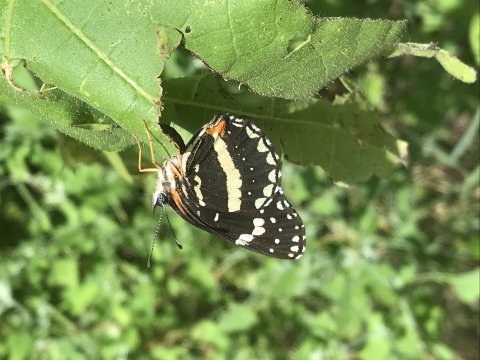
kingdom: Animalia
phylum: Arthropoda
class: Insecta
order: Lepidoptera
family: Nymphalidae
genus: Chlosyne
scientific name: Chlosyne lacinia
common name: Bordered Patch
